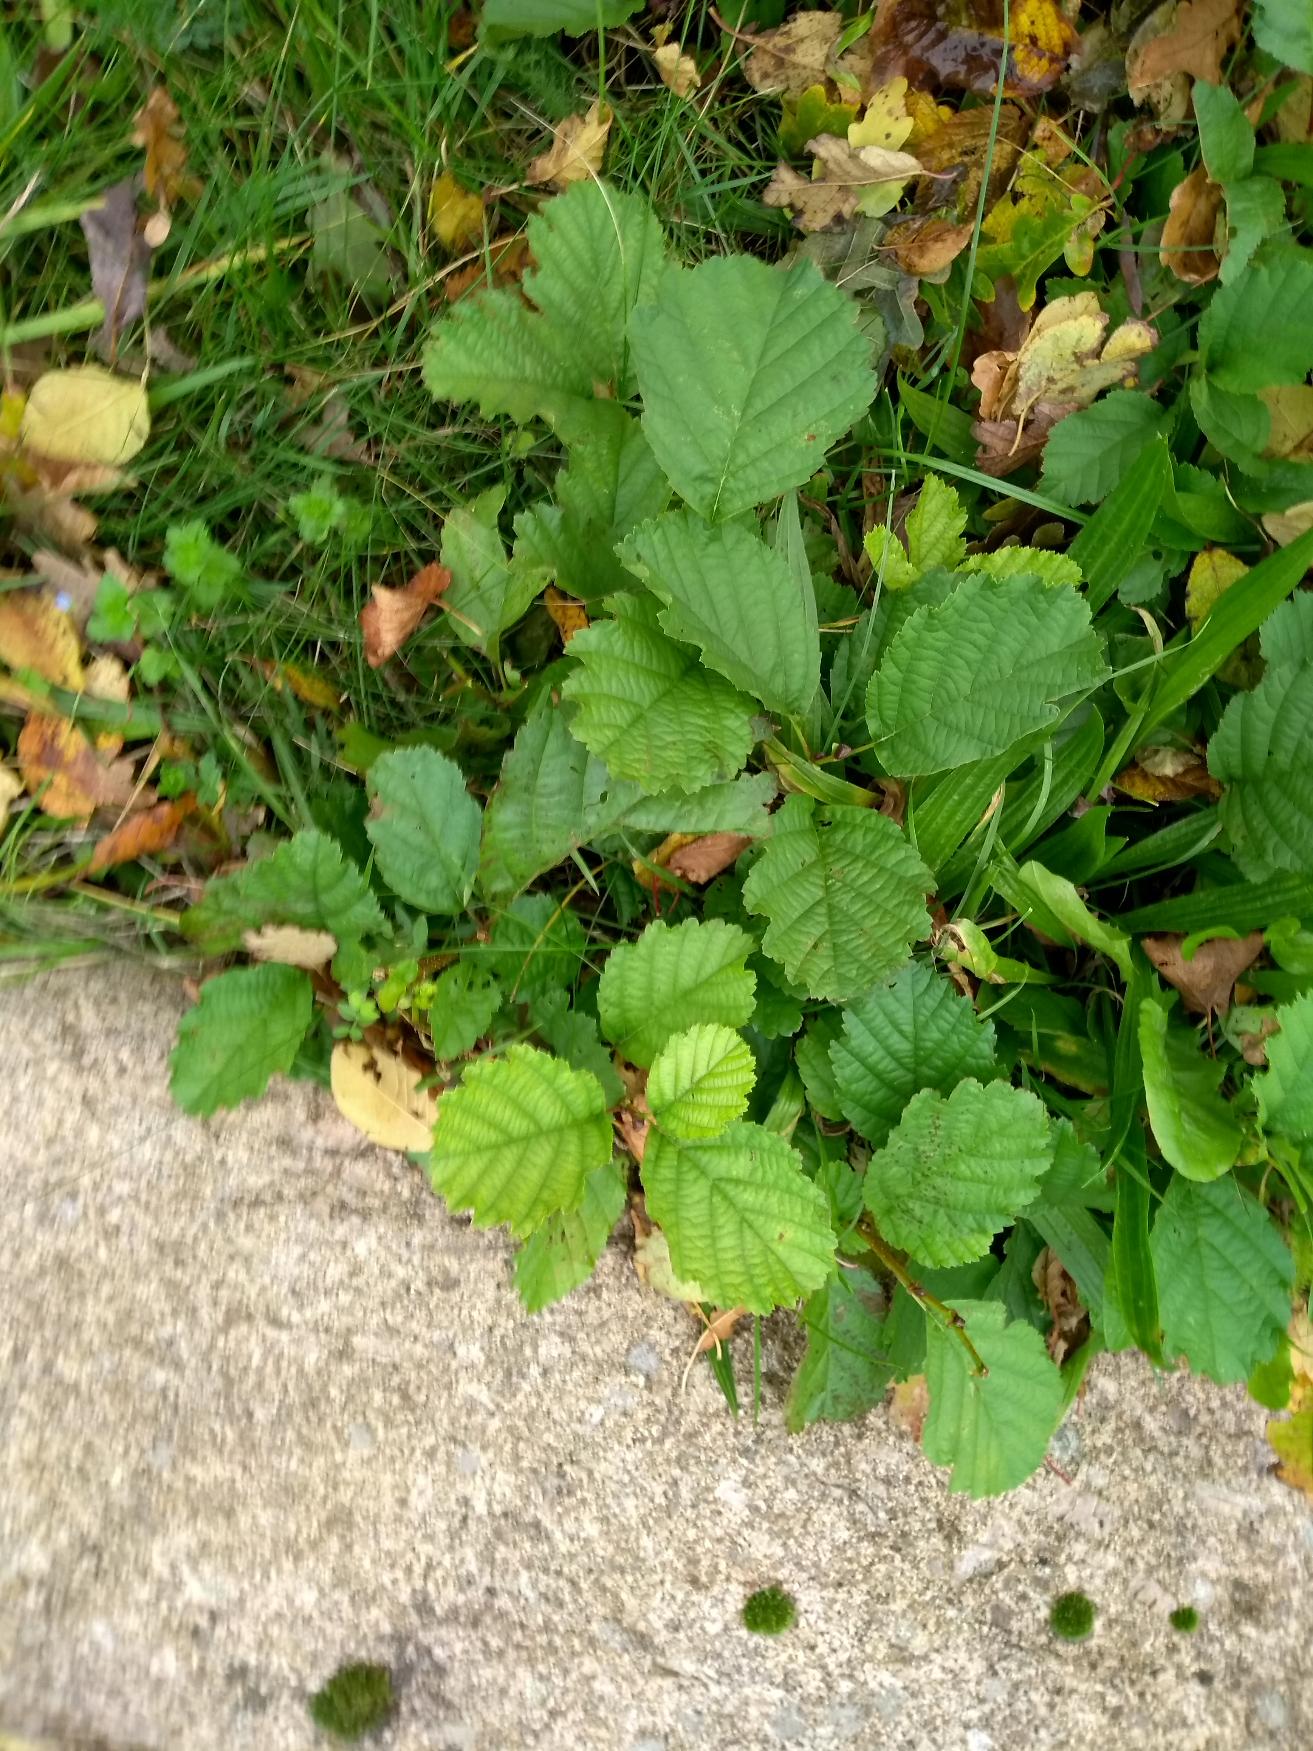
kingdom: Plantae
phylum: Tracheophyta
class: Magnoliopsida
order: Fagales
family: Betulaceae
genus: Alnus
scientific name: Alnus glutinosa
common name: Rød-el
